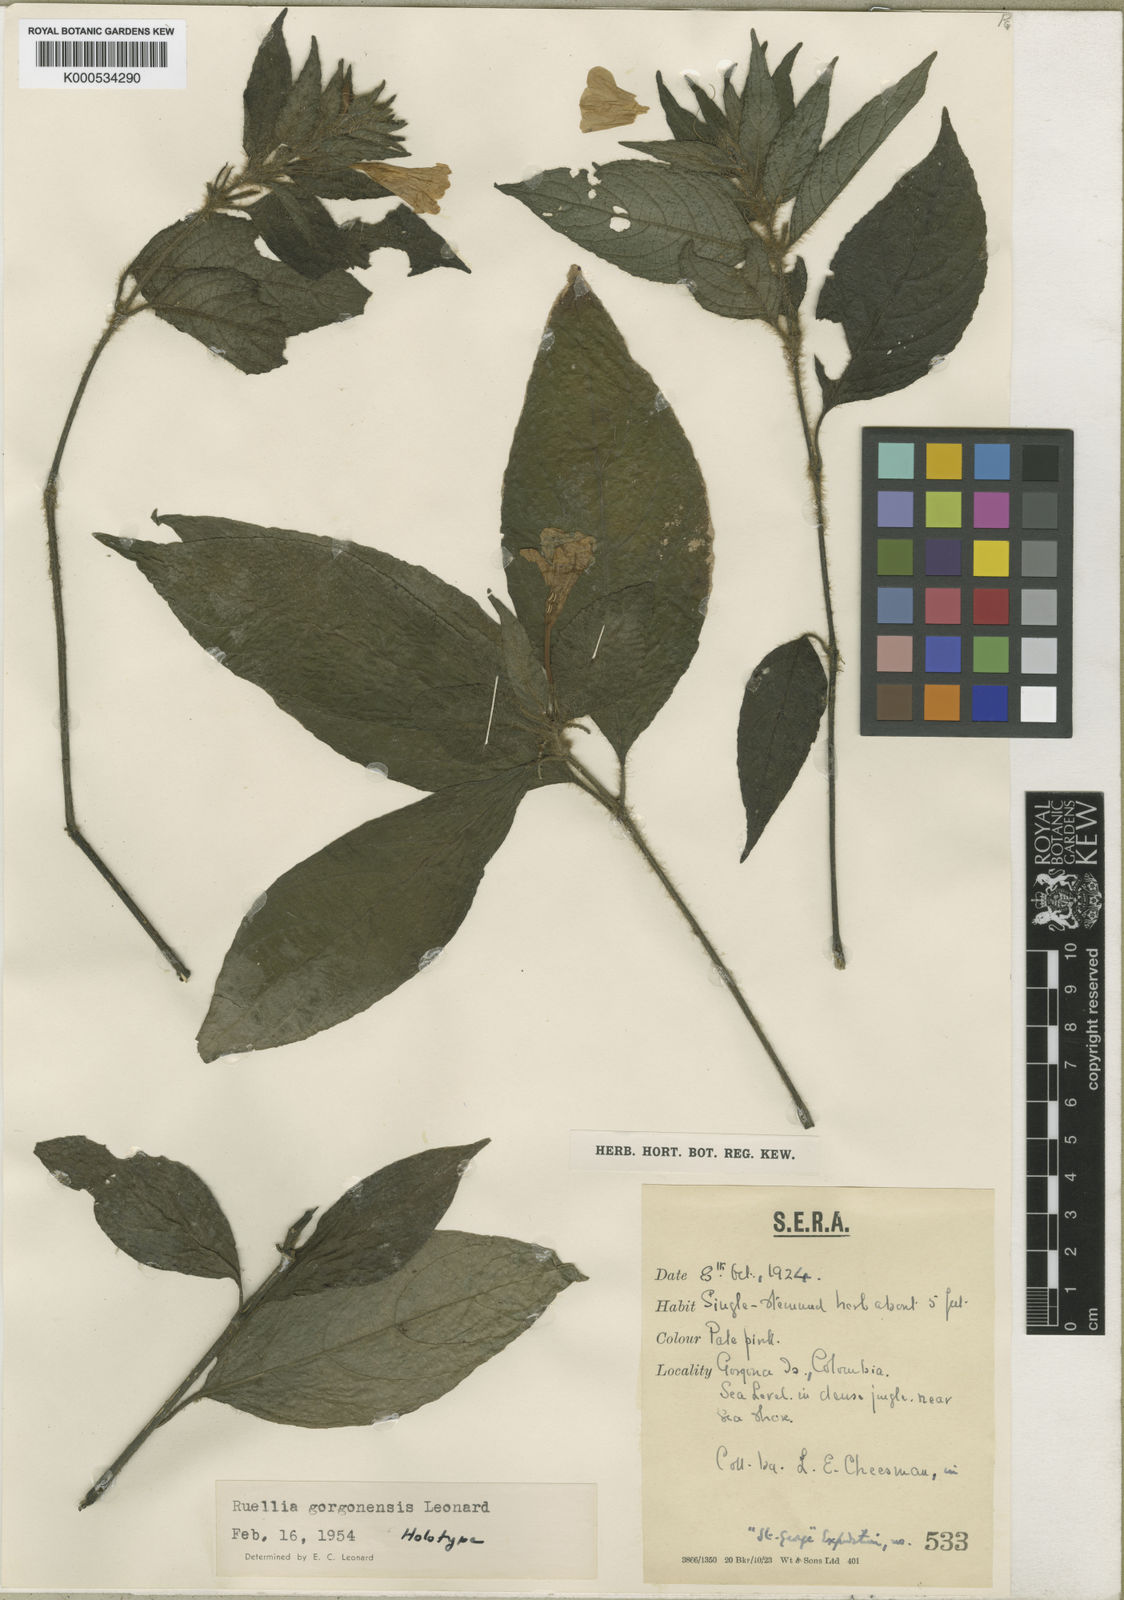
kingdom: Plantae
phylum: Tracheophyta
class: Magnoliopsida
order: Lamiales
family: Acanthaceae
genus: Ruellia
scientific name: Ruellia gorgonensis
